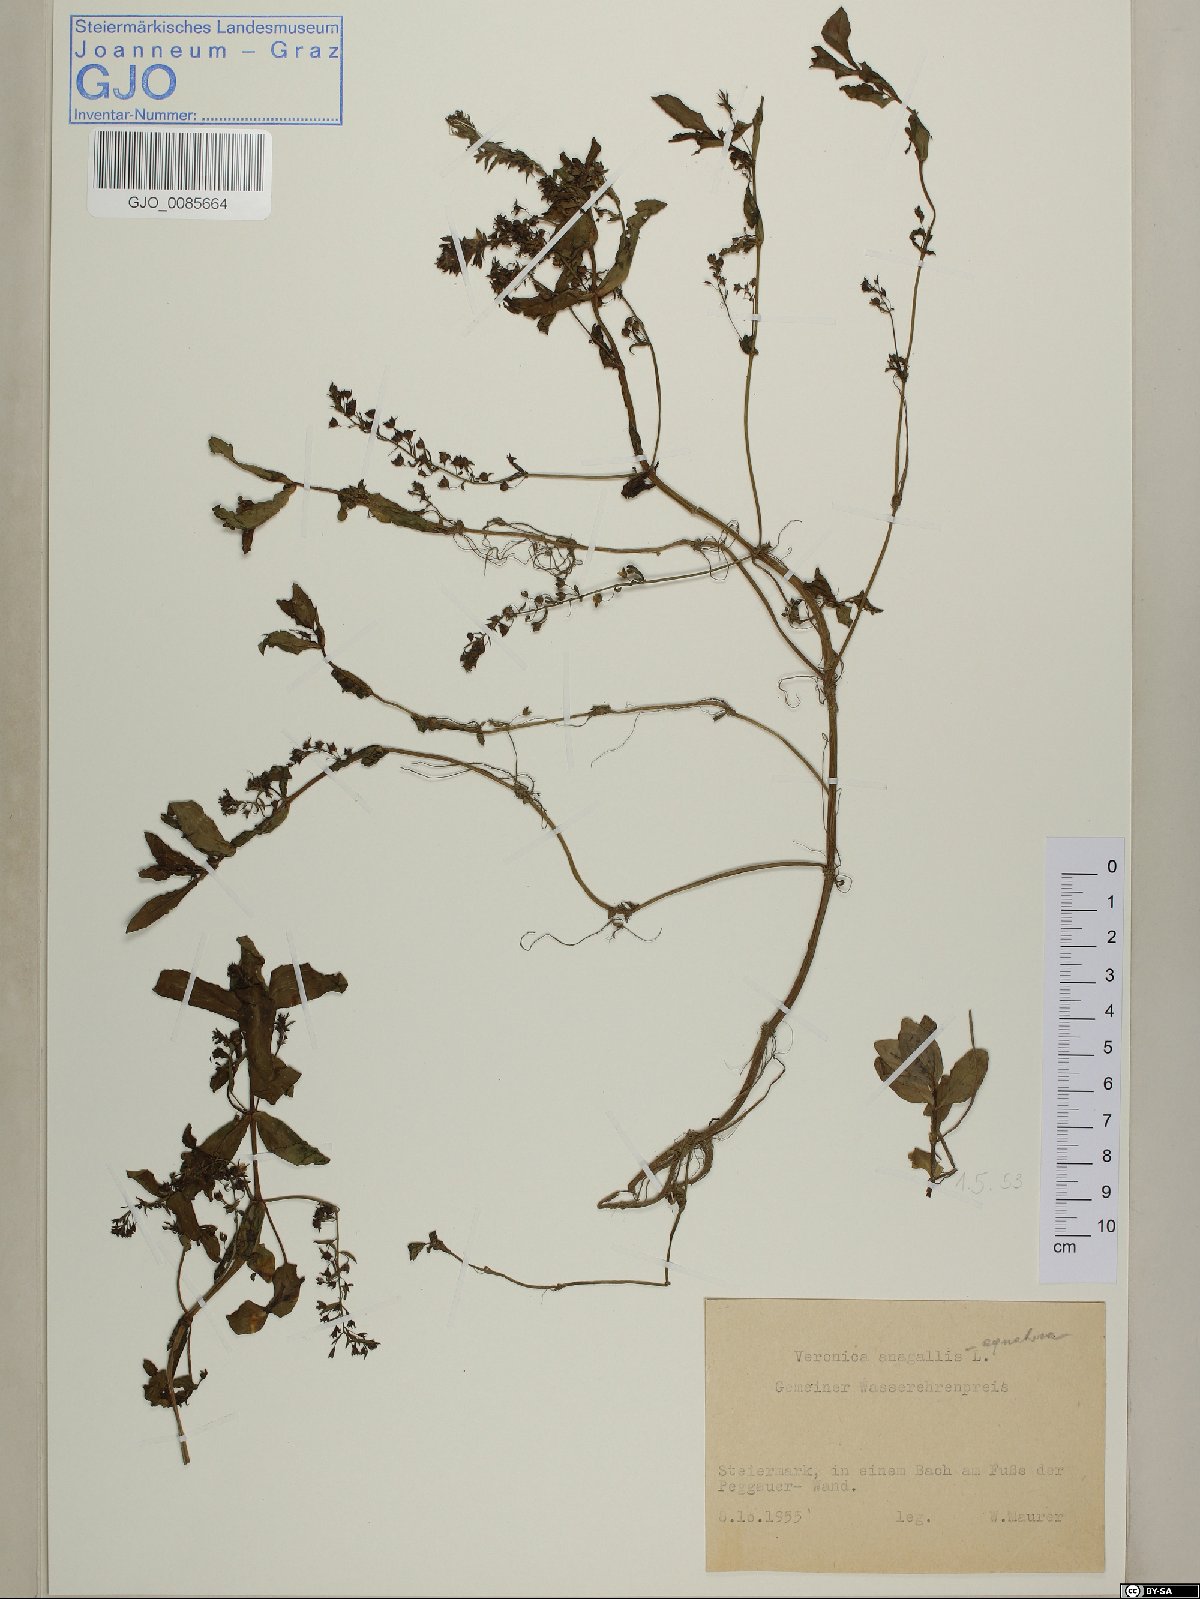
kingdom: Plantae
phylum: Tracheophyta
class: Magnoliopsida
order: Lamiales
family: Plantaginaceae
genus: Veronica
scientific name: Veronica anagallis-aquatica
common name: Water speedwell
